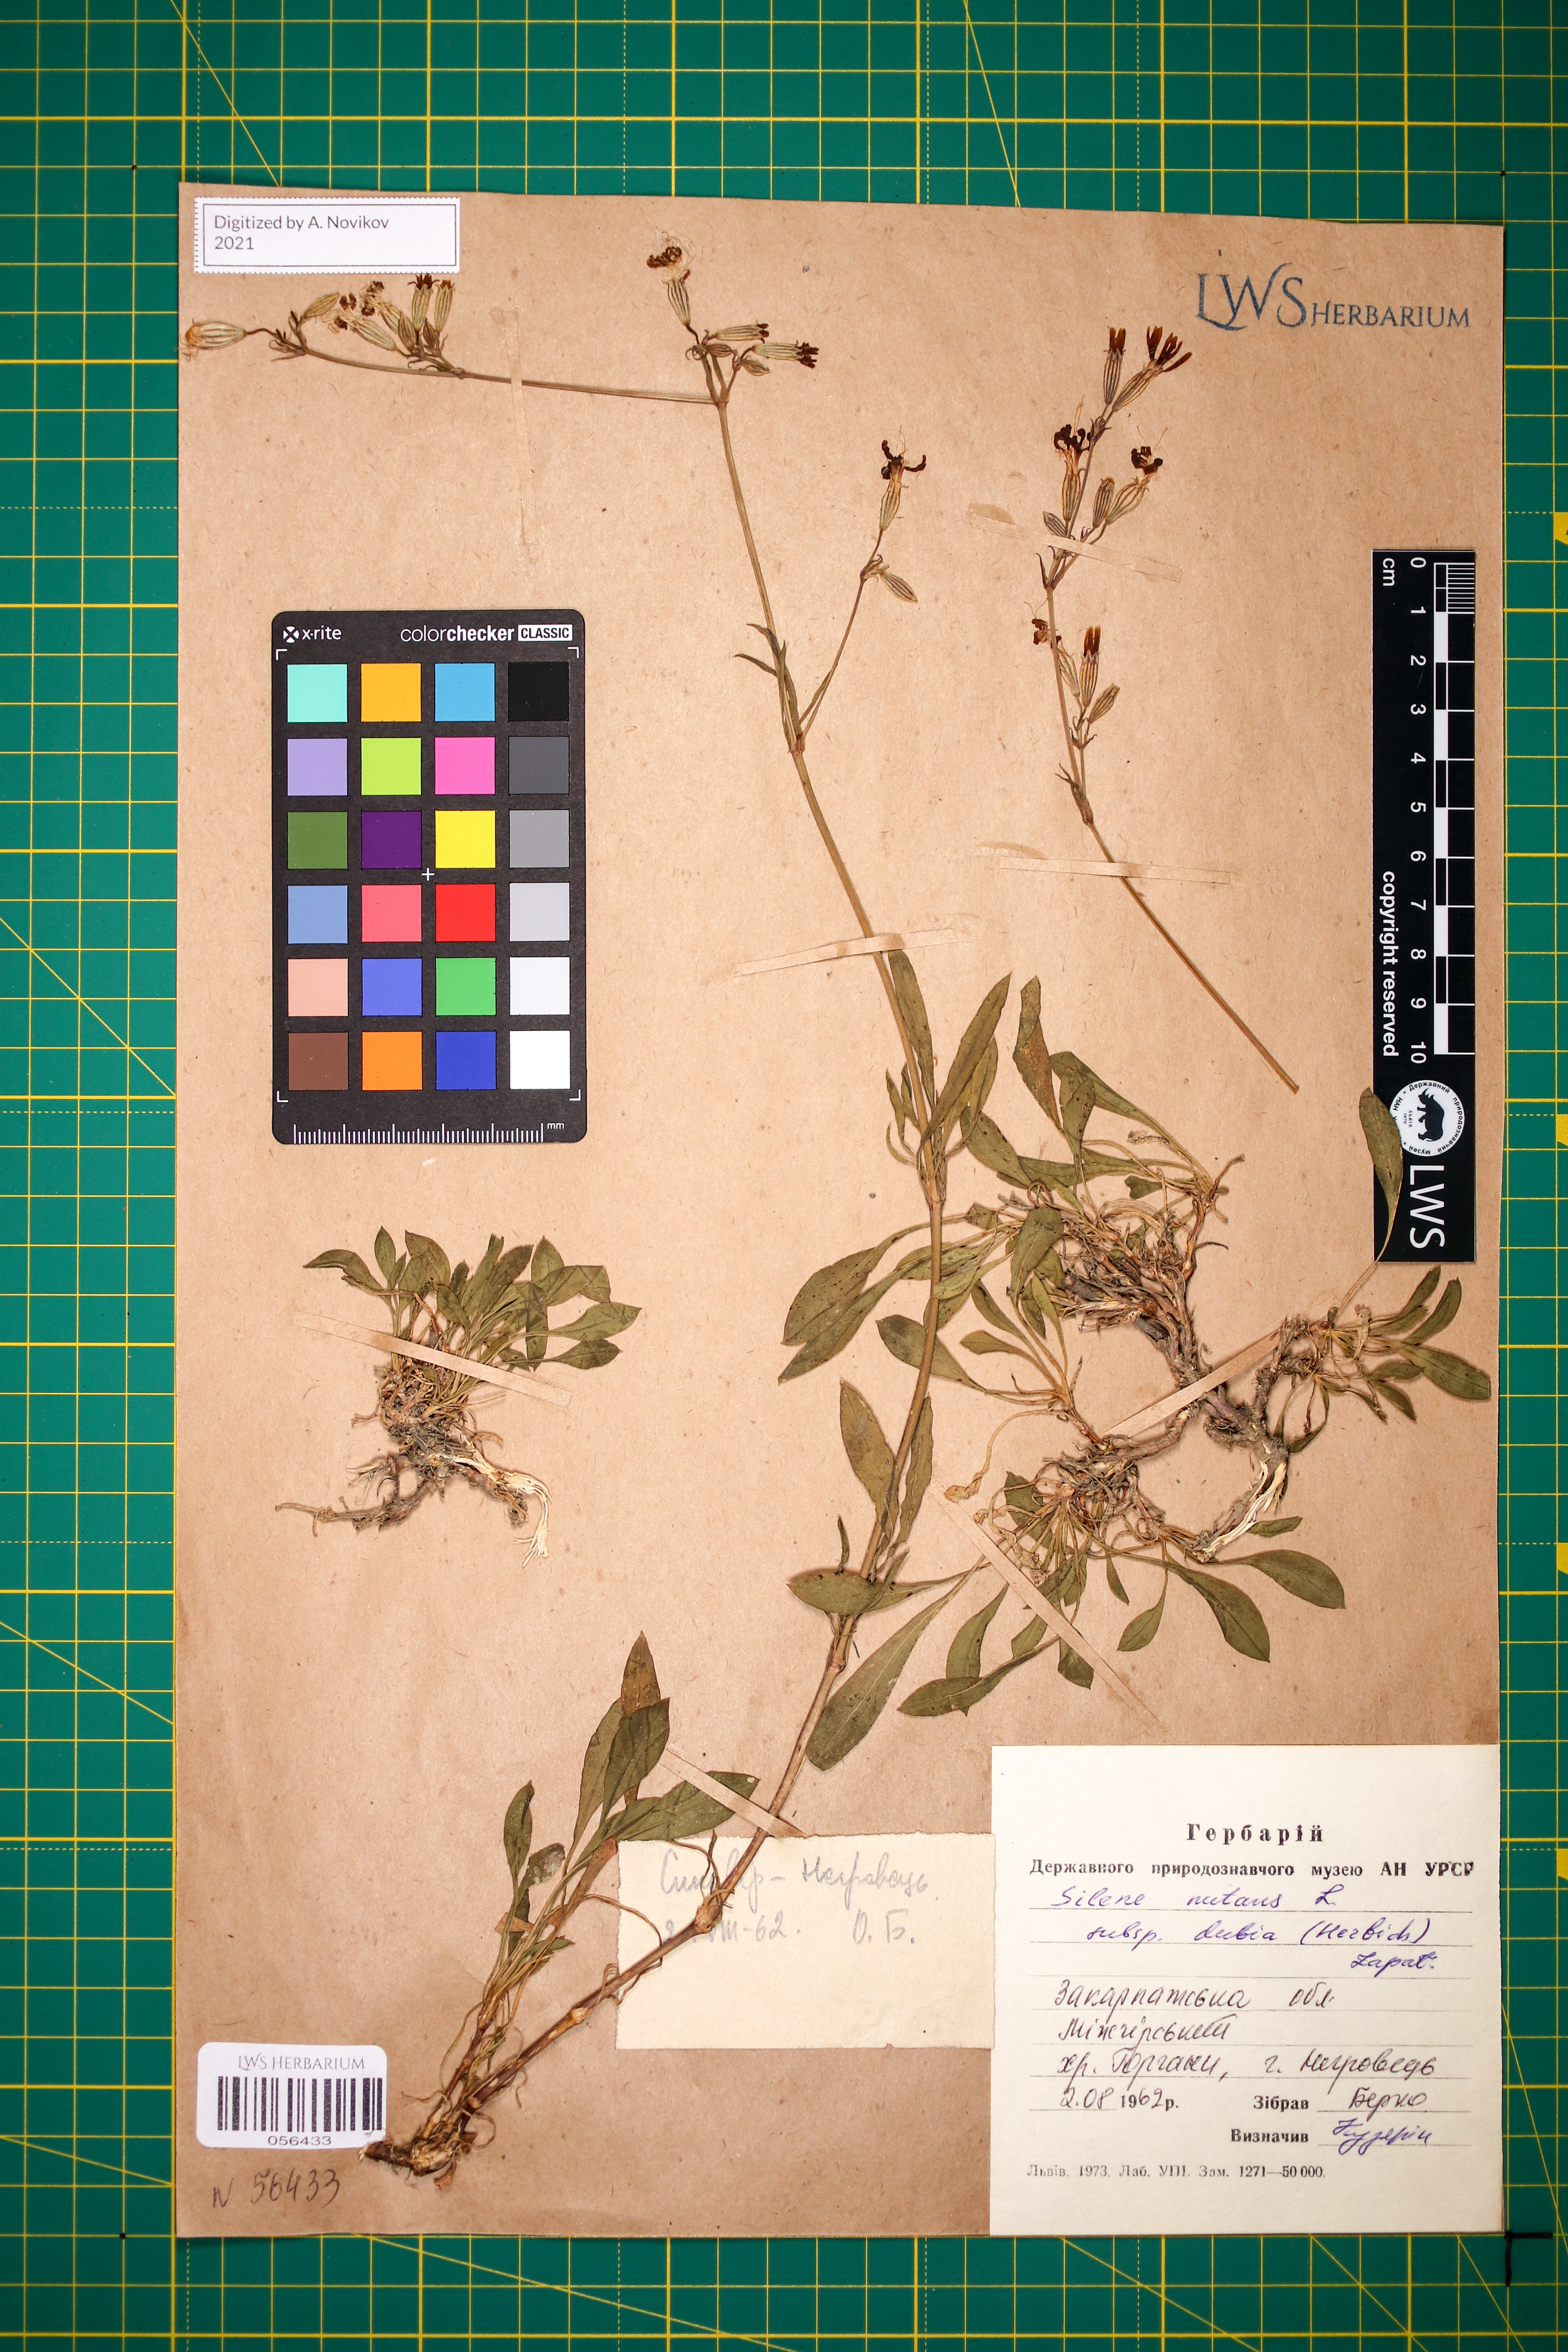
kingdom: Plantae
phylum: Tracheophyta
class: Magnoliopsida
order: Caryophyllales
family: Caryophyllaceae
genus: Silene
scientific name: Silene nutans
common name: Nottingham catchfly
